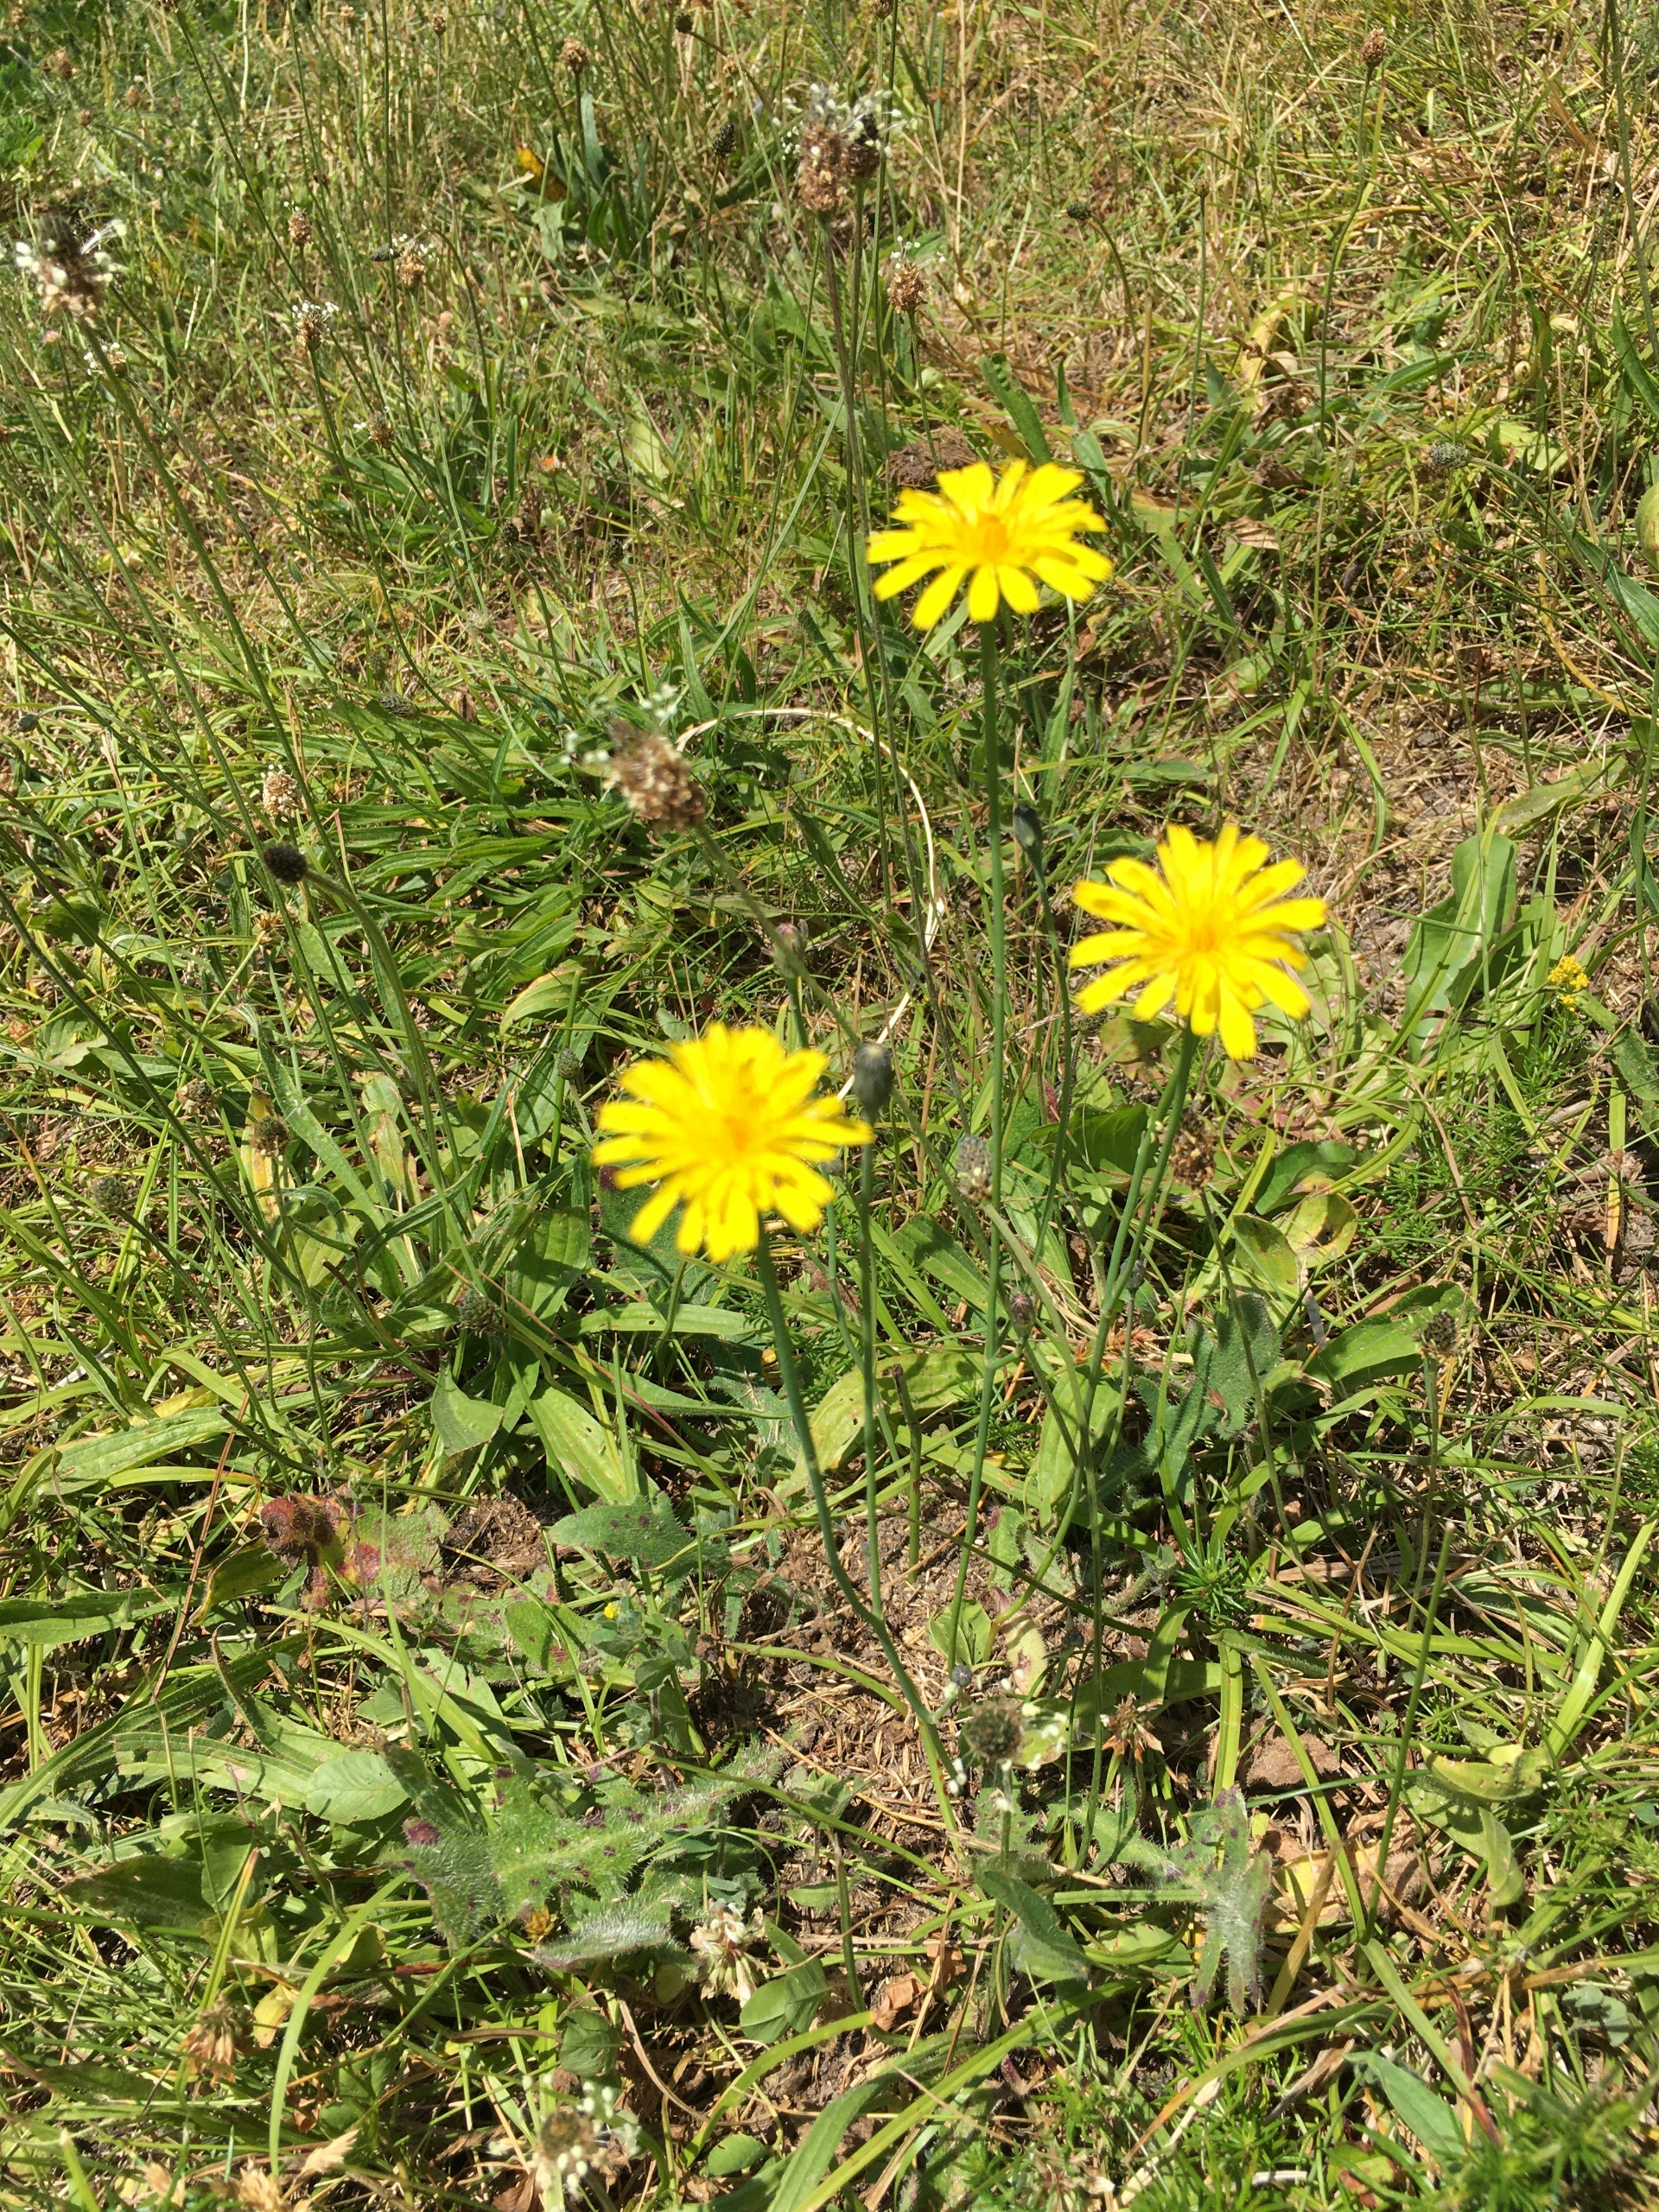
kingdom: Plantae
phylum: Tracheophyta
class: Magnoliopsida
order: Asterales
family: Asteraceae
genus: Hypochaeris
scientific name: Hypochaeris radicata
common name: Almindelig kongepen
